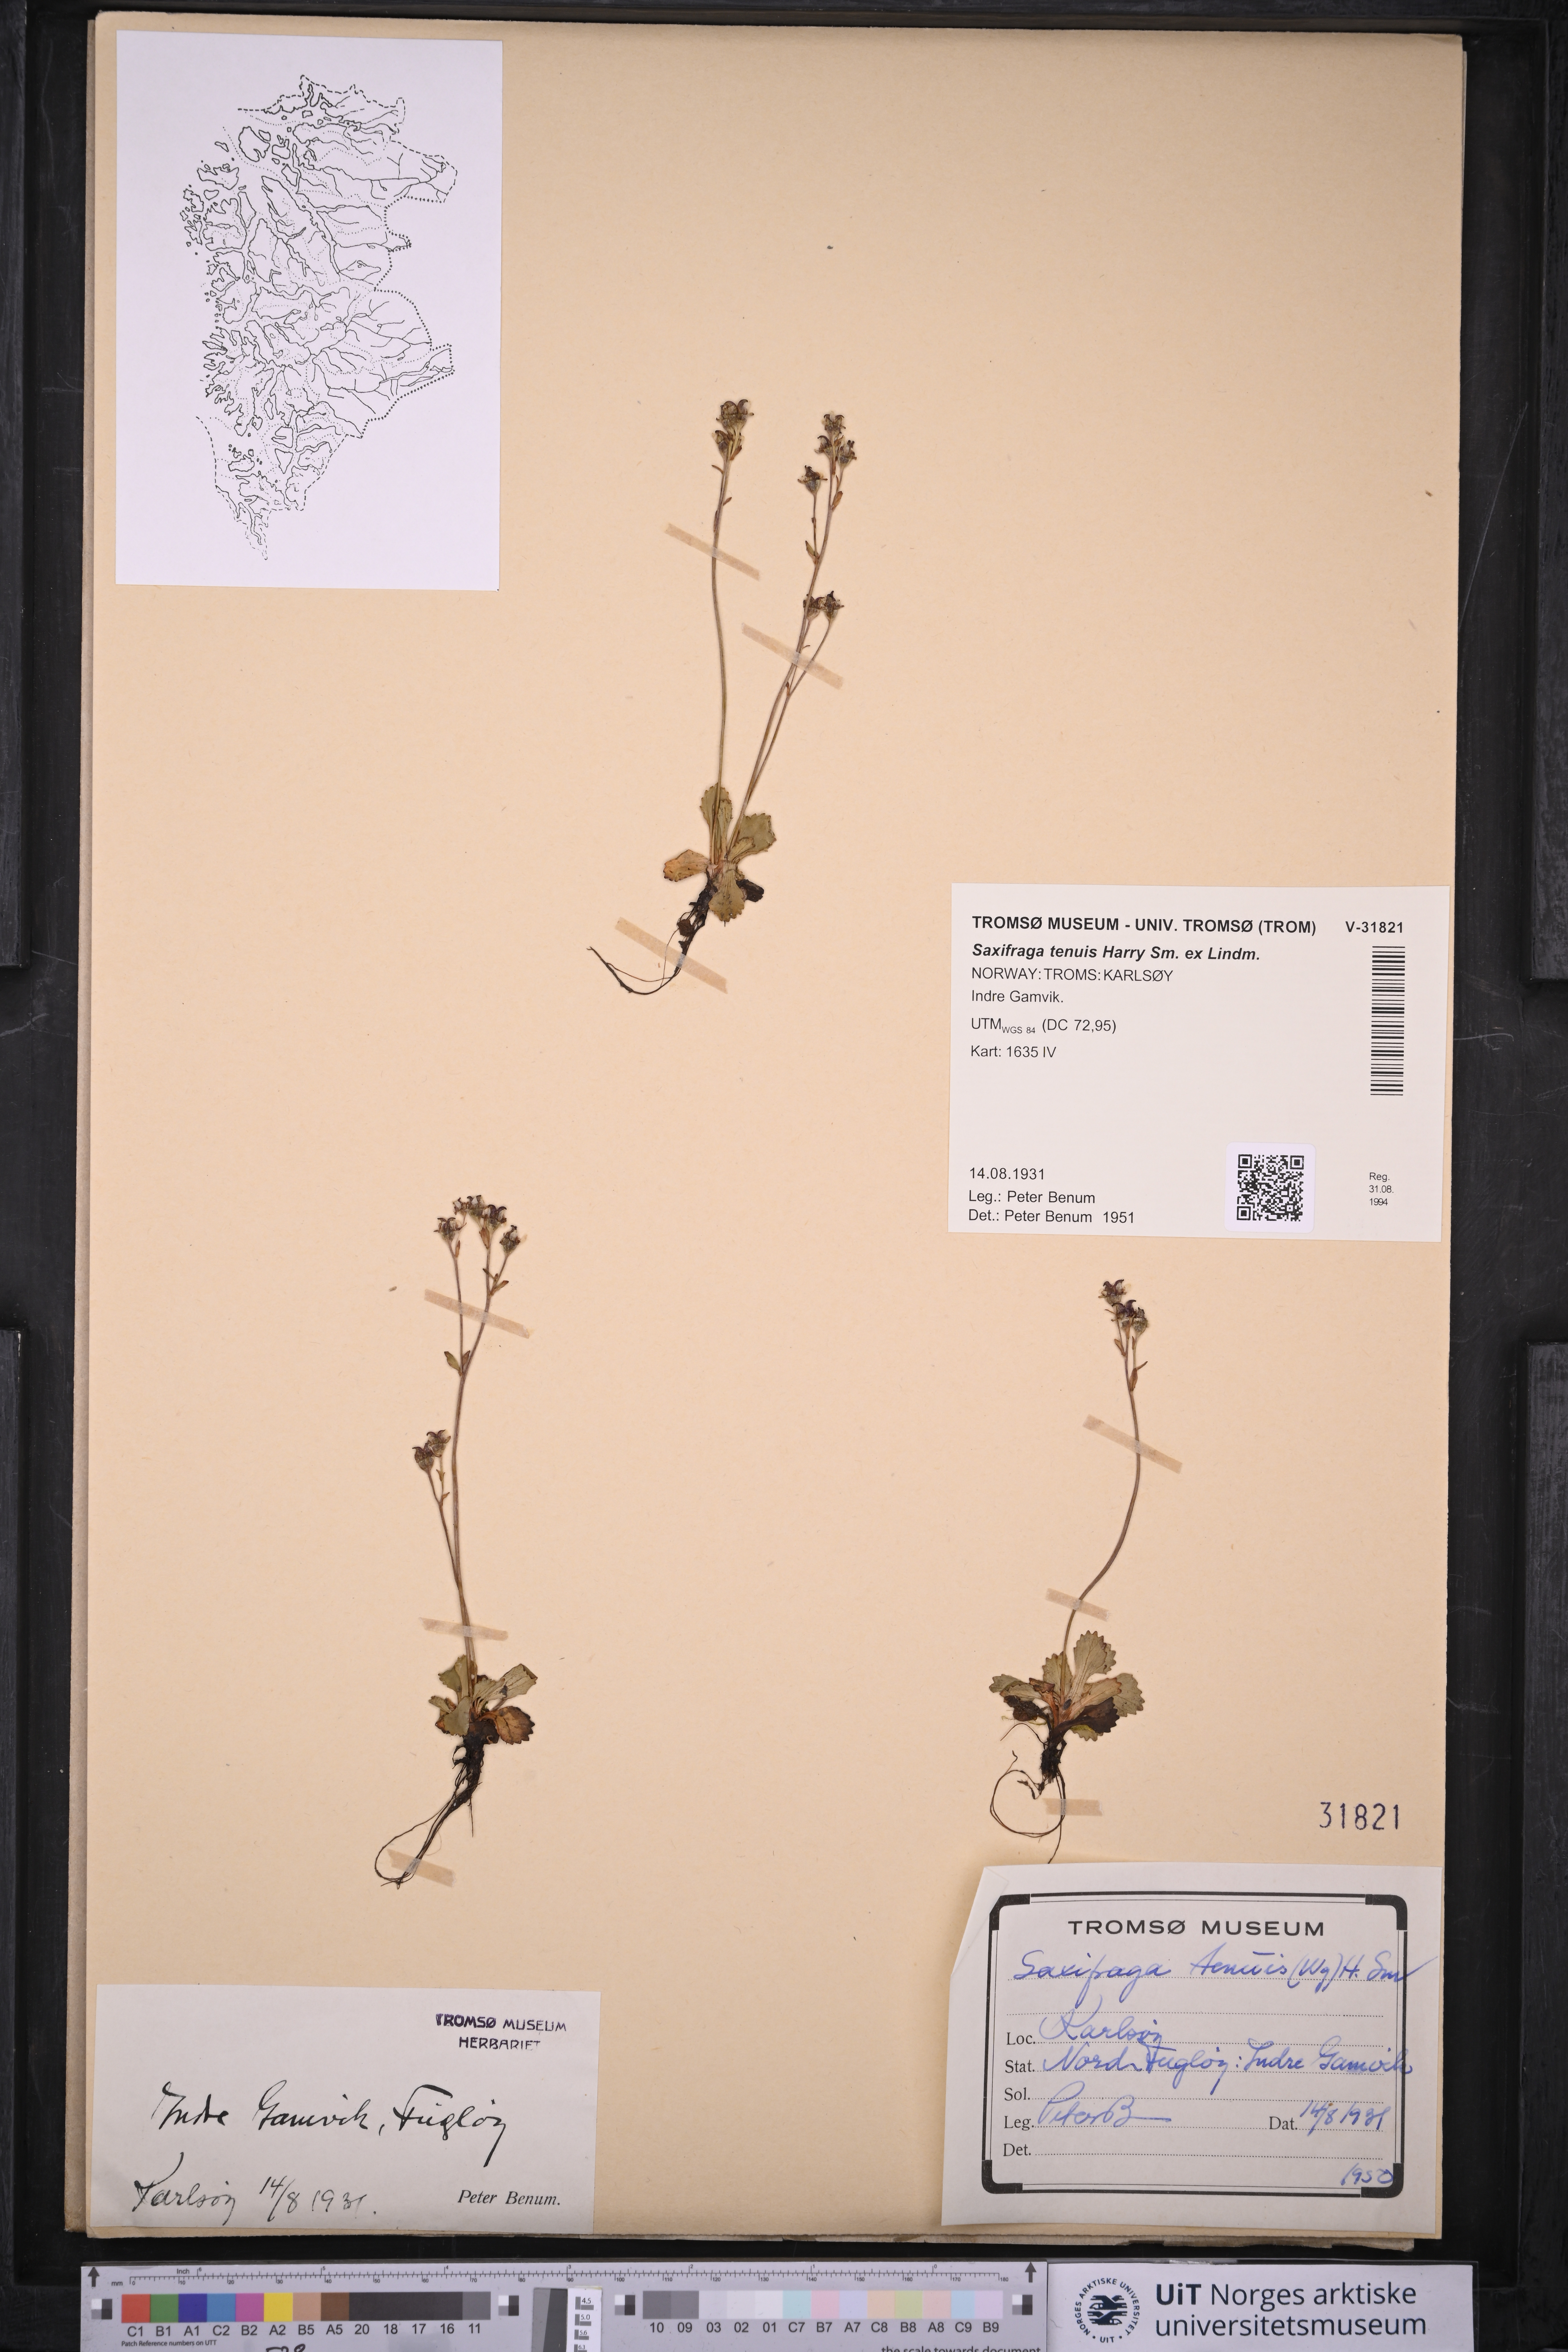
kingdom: Plantae
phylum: Tracheophyta
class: Magnoliopsida
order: Saxifragales
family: Saxifragaceae
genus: Micranthes
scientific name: Micranthes tenuis
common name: Ottertail pass saxifrage
